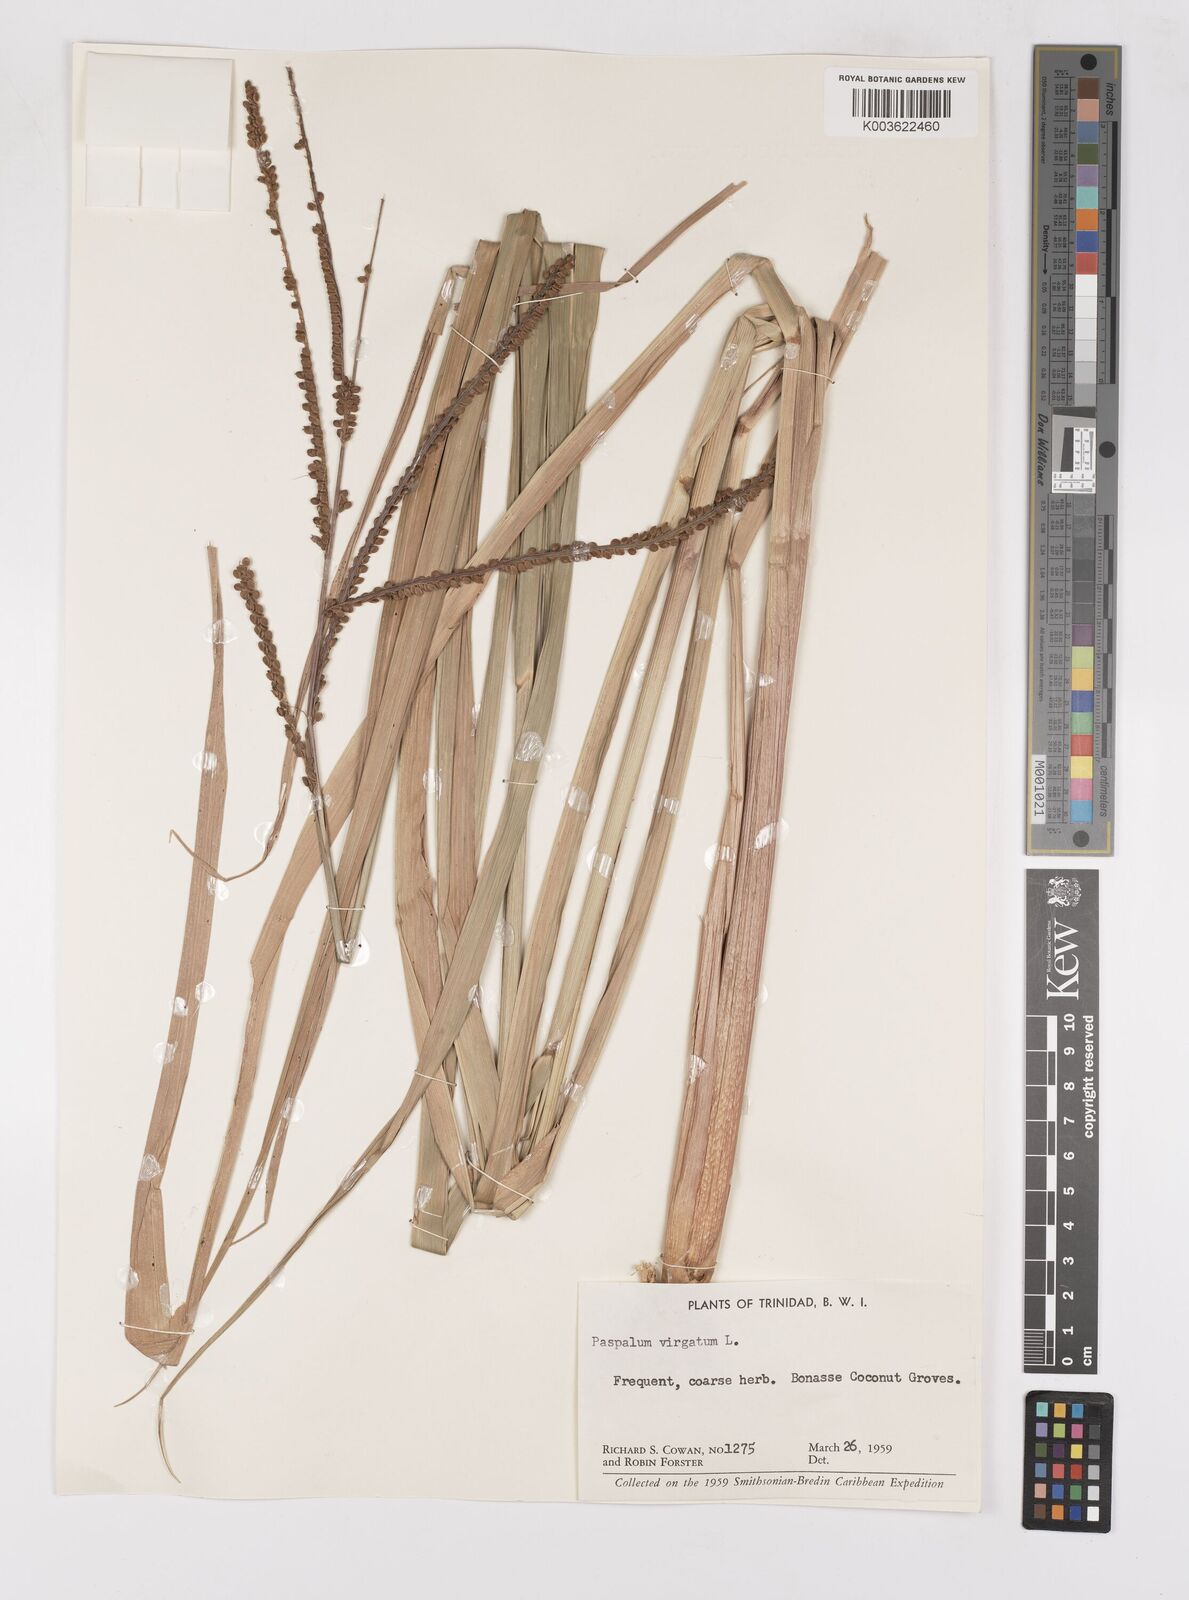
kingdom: Plantae
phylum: Tracheophyta
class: Liliopsida
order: Poales
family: Poaceae
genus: Paspalum
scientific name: Paspalum virgatum
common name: Talquezal
